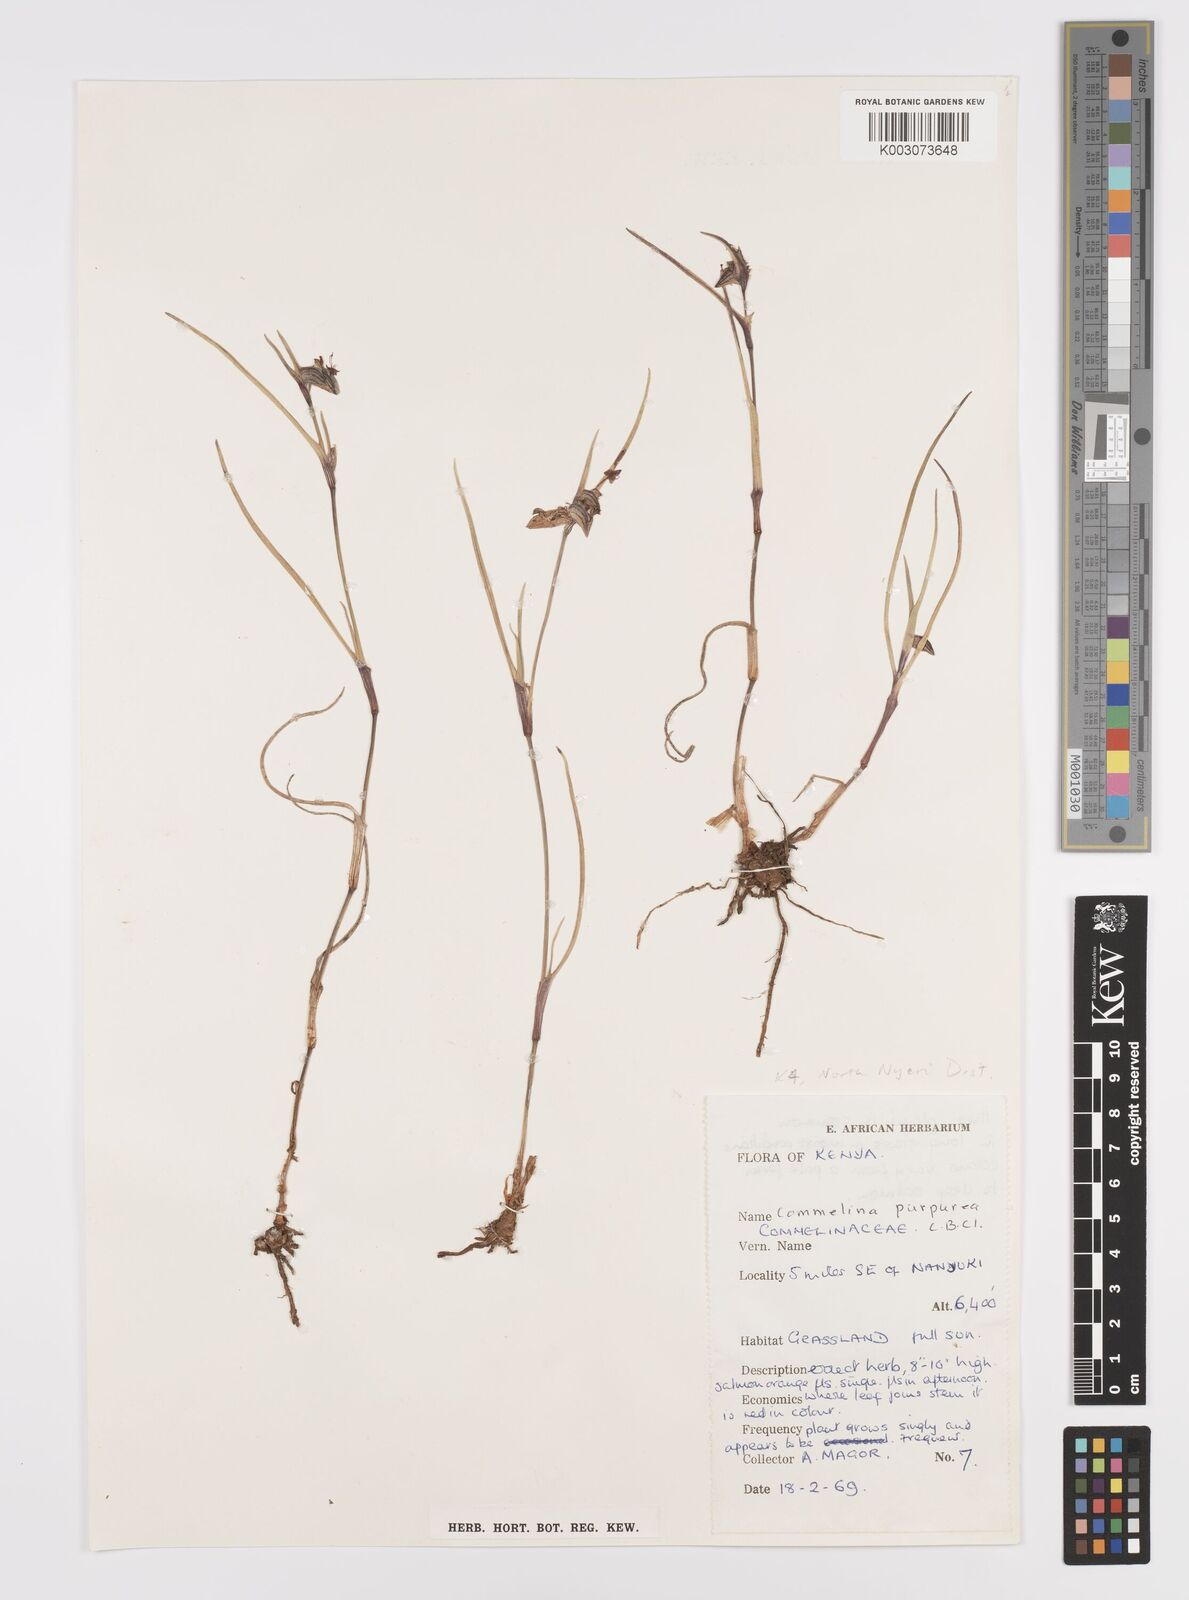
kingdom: Plantae
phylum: Tracheophyta
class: Liliopsida
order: Commelinales
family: Commelinaceae
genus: Commelina
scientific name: Commelina purpurea
